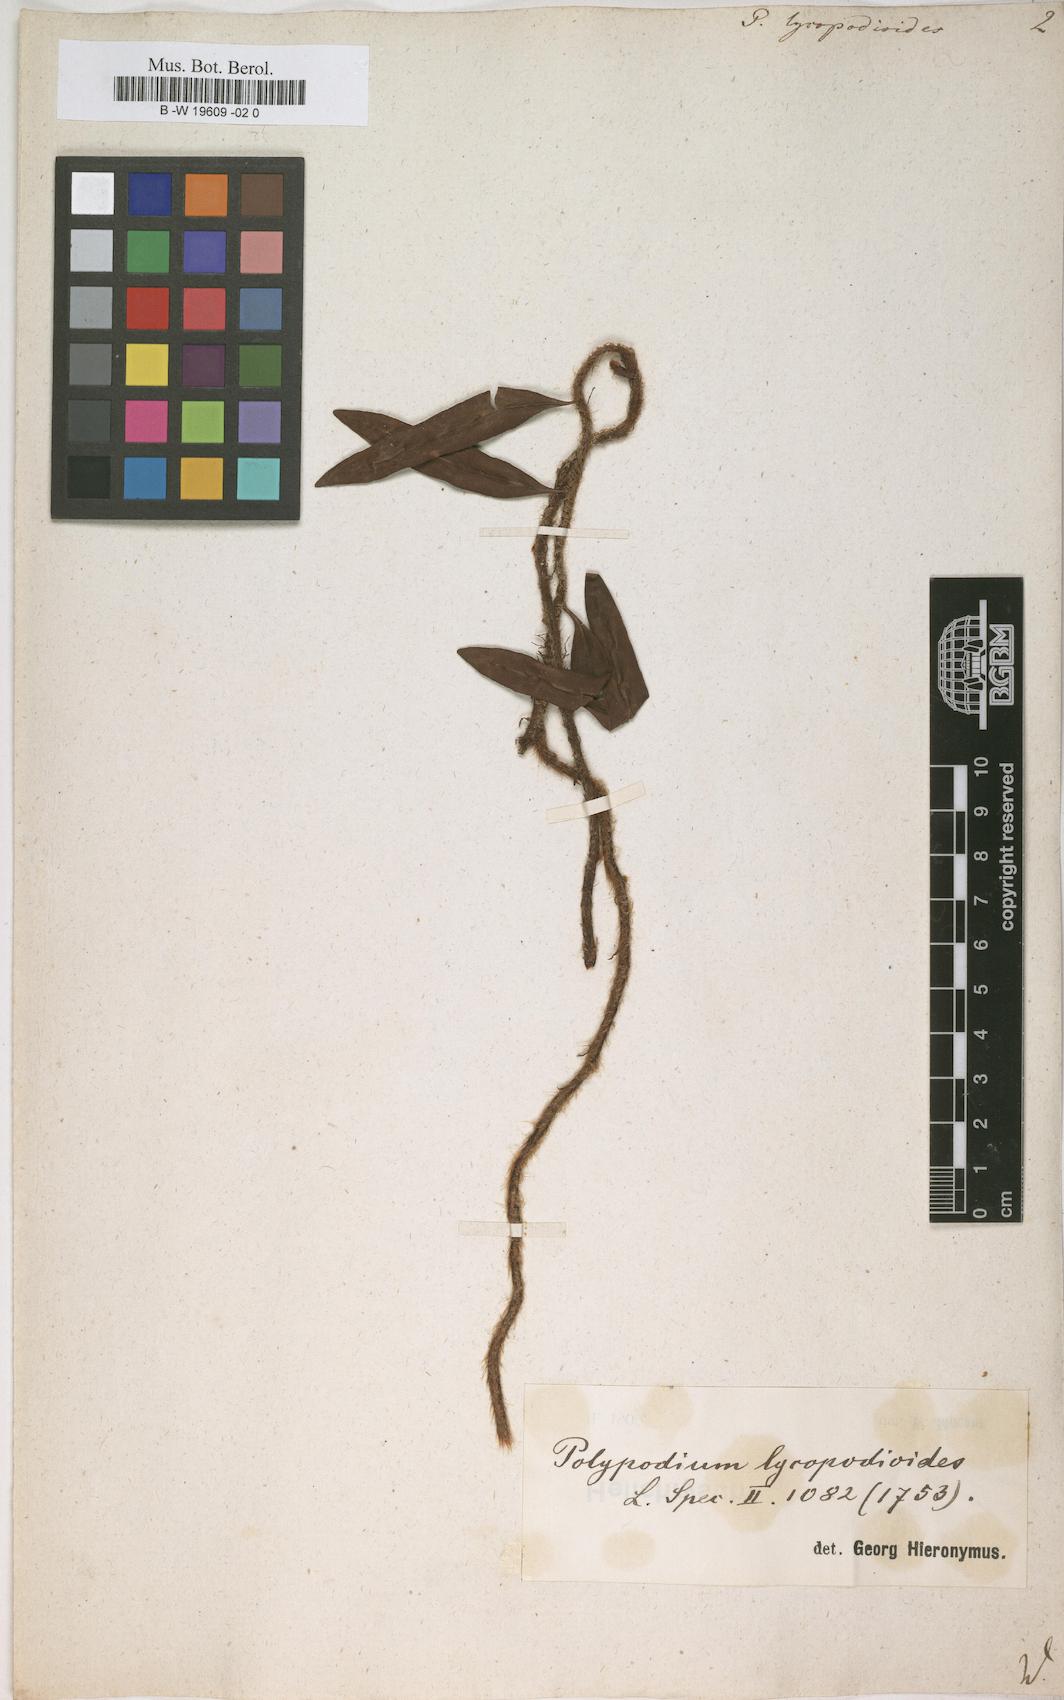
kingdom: Plantae
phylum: Tracheophyta
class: Polypodiopsida
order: Polypodiales
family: Polypodiaceae
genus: Microgramma
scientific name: Microgramma lycopodioides
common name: Bastard catclaw
